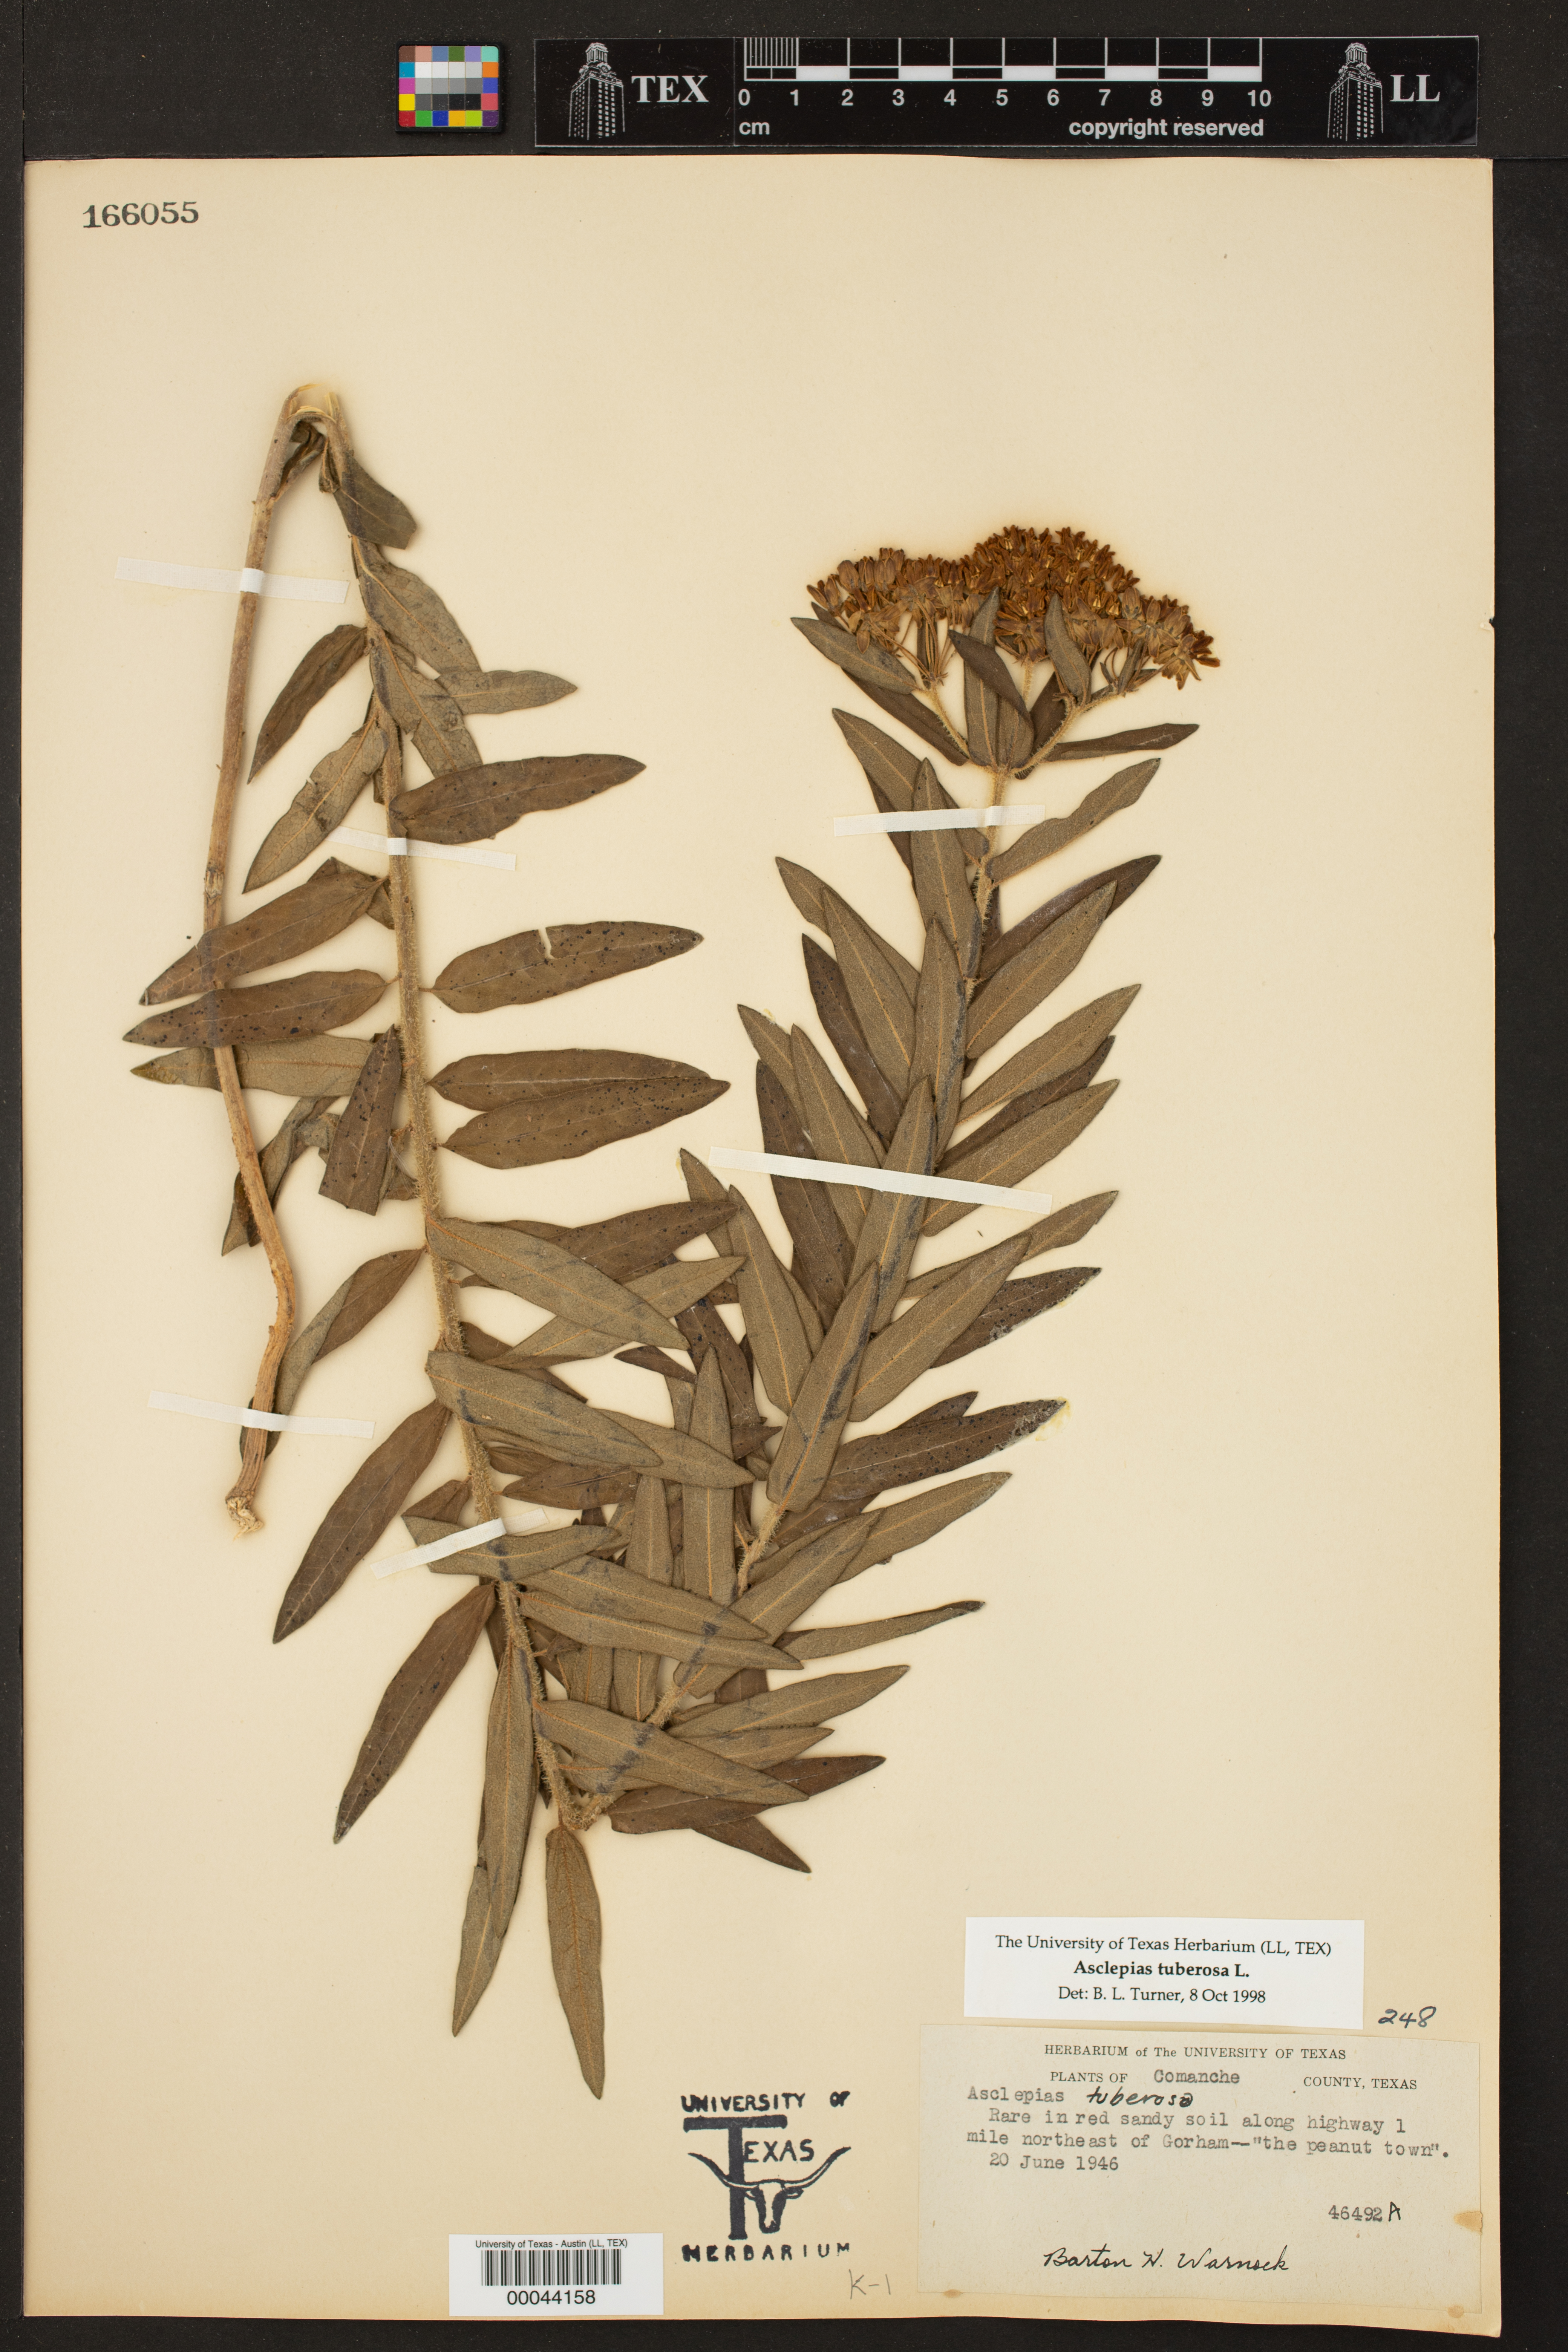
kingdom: Plantae
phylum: Tracheophyta
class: Magnoliopsida
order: Gentianales
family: Apocynaceae
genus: Asclepias
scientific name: Asclepias tuberosa
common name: Butterfly milkweed
